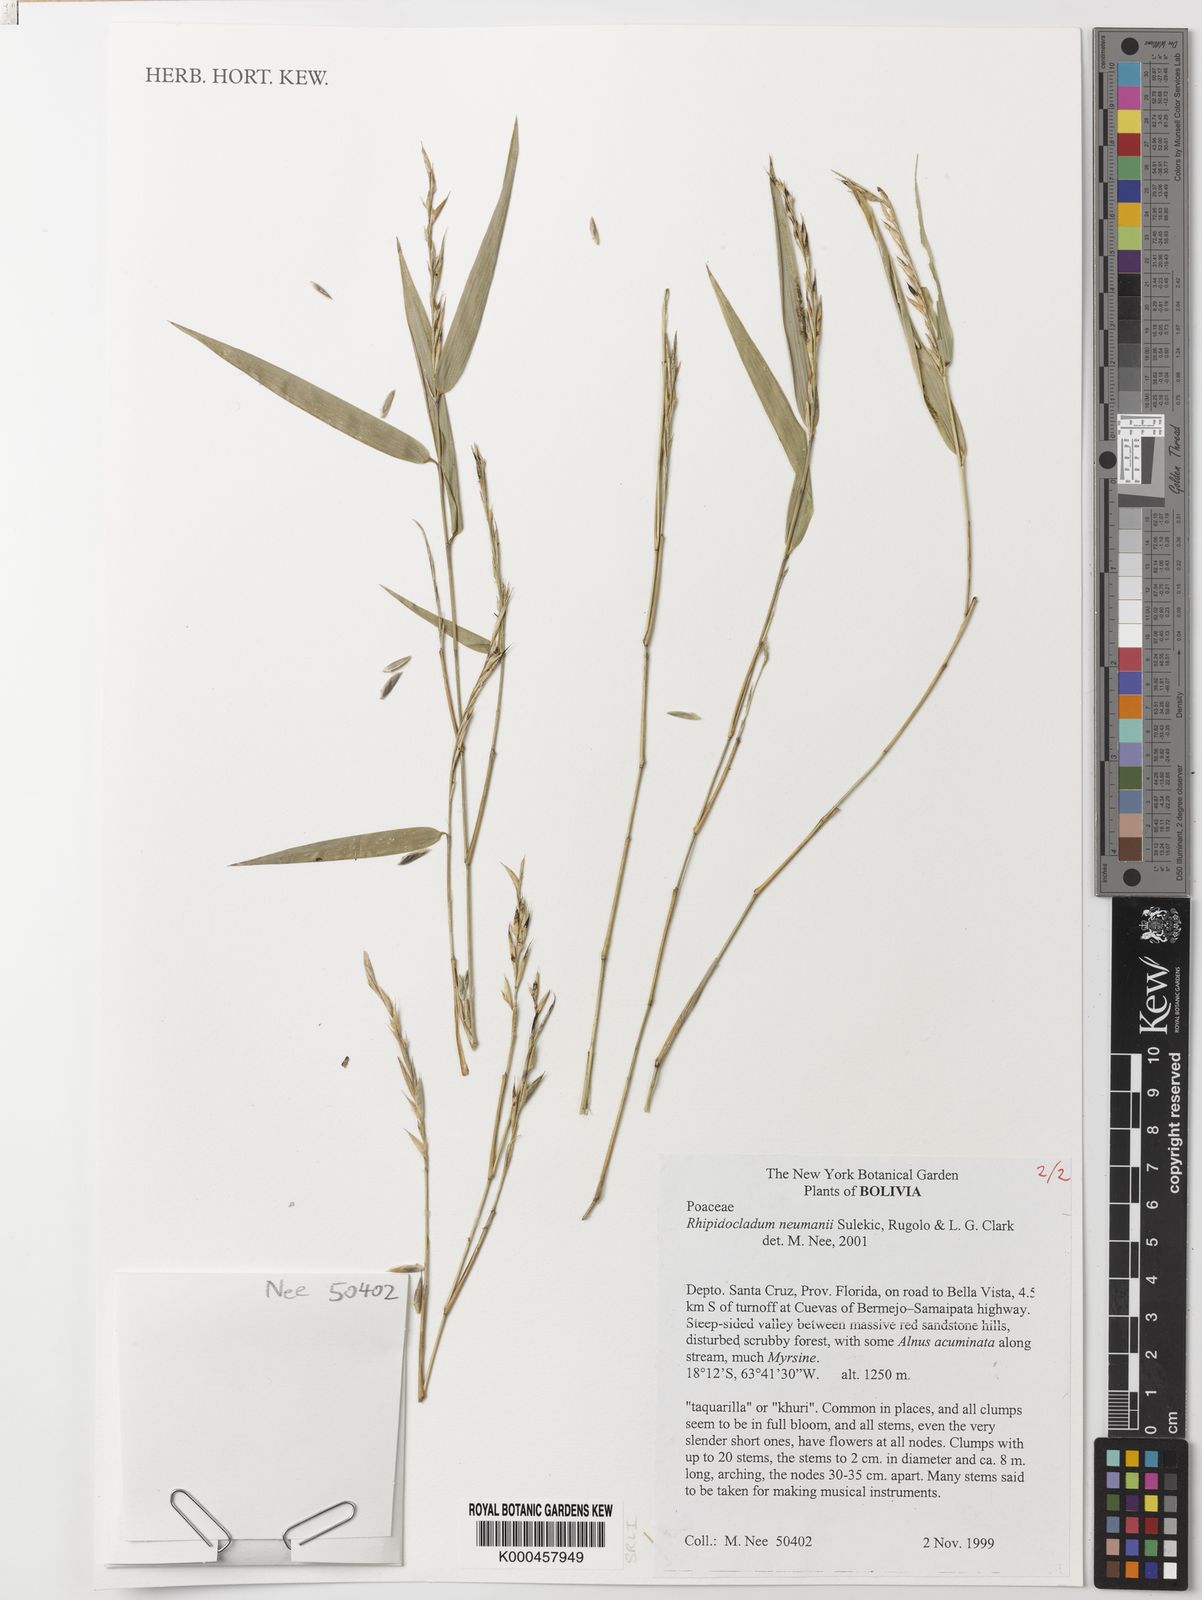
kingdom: Plantae
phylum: Tracheophyta
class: Liliopsida
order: Poales
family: Poaceae
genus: Rhipidocladum
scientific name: Rhipidocladum
